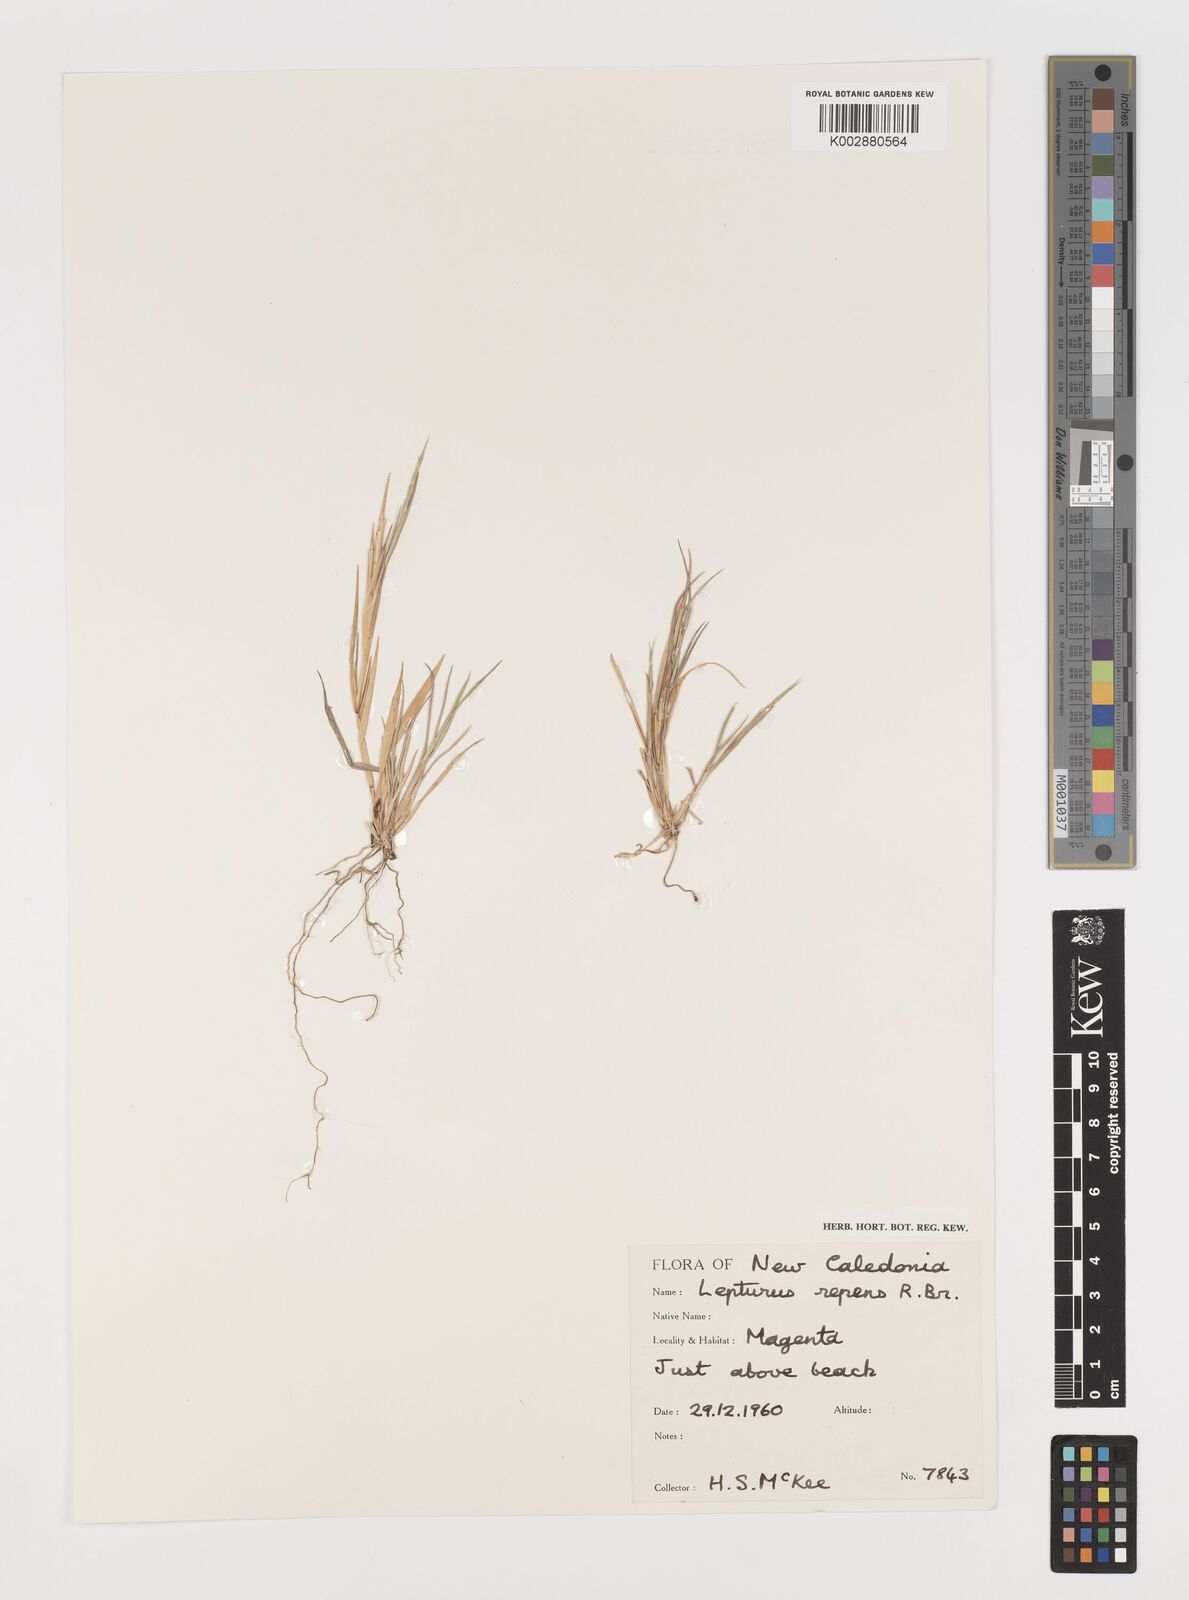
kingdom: Plantae
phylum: Tracheophyta
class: Liliopsida
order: Poales
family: Poaceae
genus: Lepturus
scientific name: Lepturus repens
